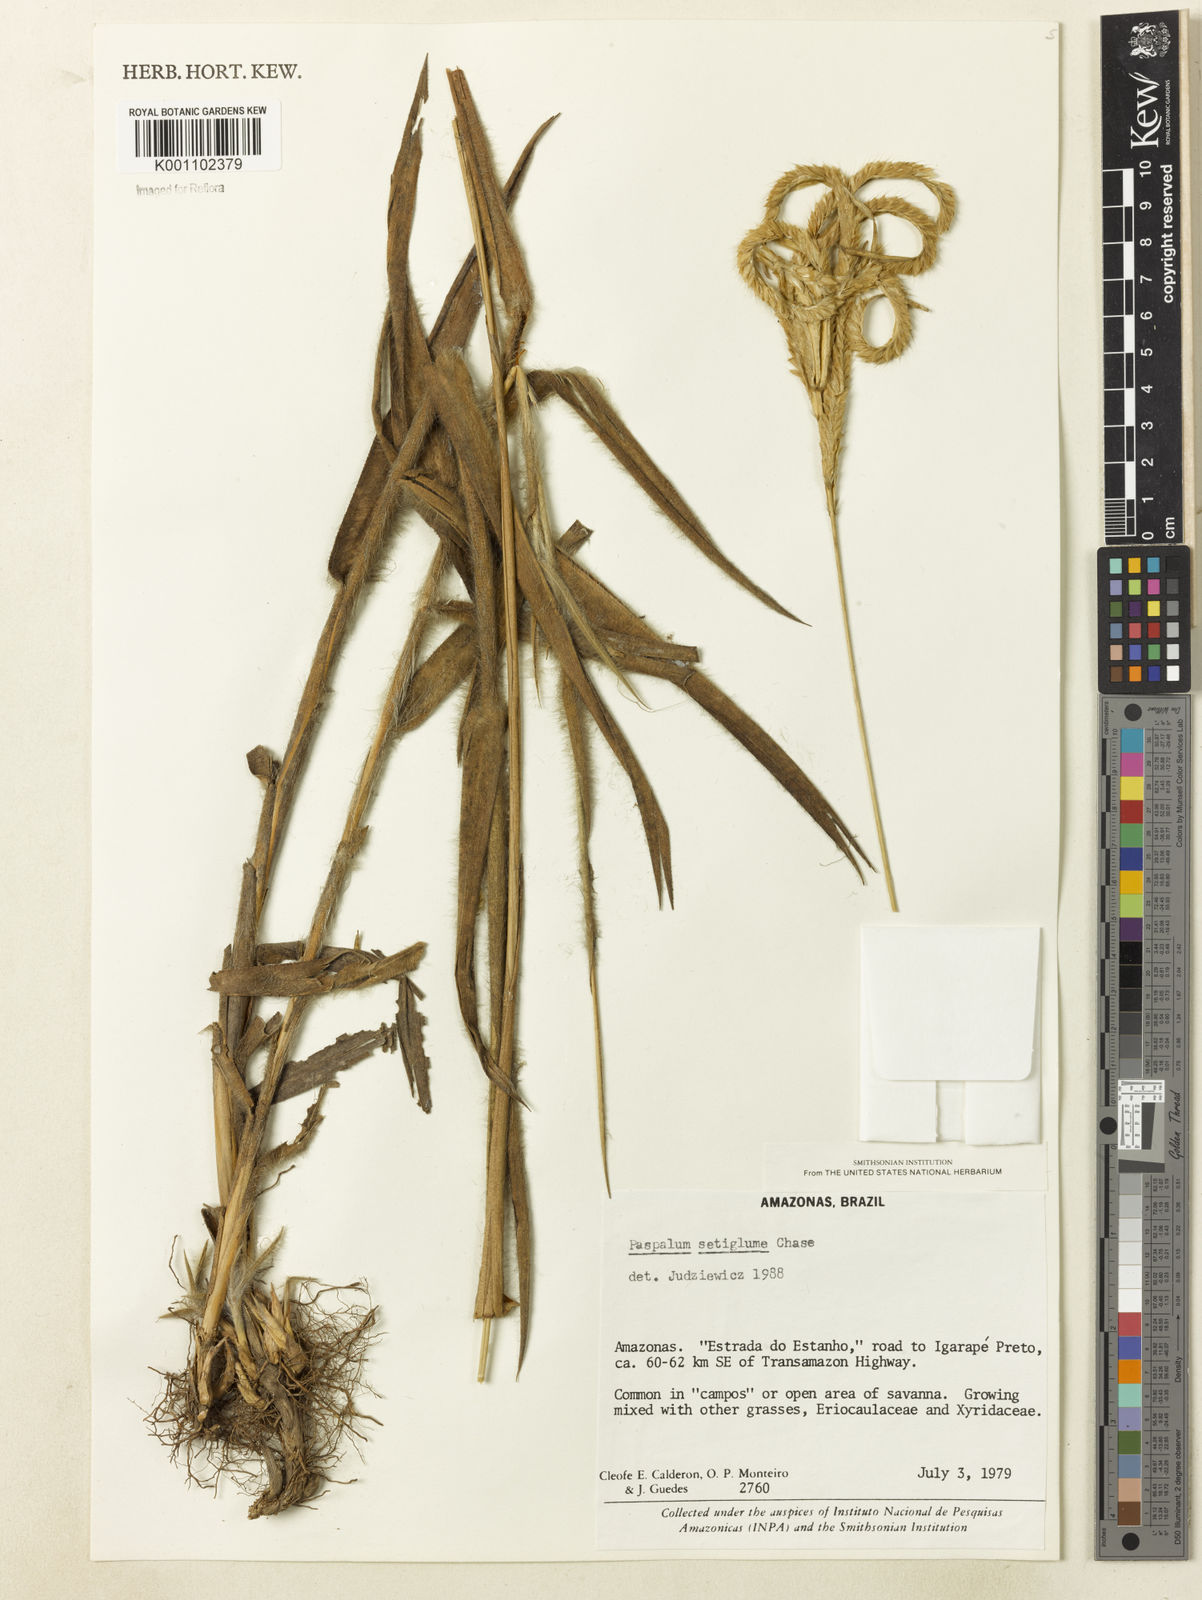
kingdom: Plantae
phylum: Tracheophyta
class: Liliopsida
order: Poales
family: Poaceae
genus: Paspalum
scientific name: Paspalum aspidiotes
